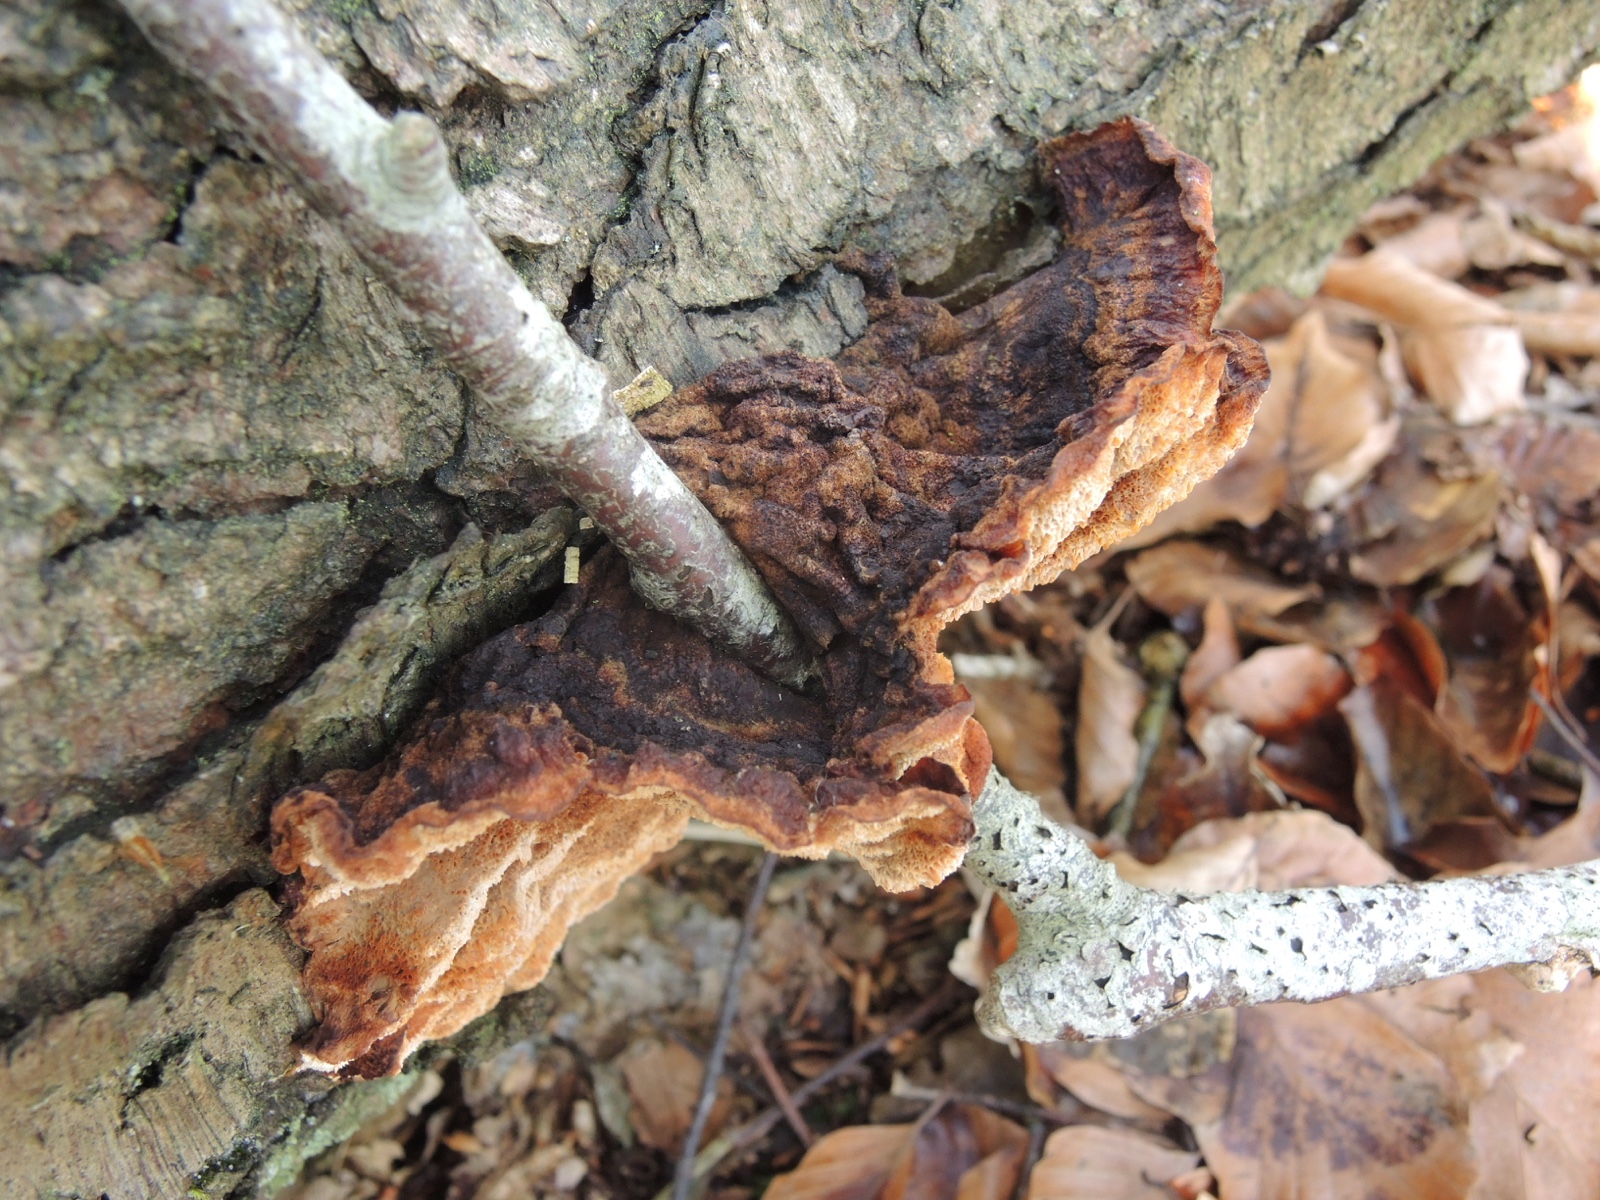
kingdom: Fungi
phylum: Basidiomycota
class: Agaricomycetes
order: Polyporales
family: Ischnodermataceae
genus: Ischnoderma
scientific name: Ischnoderma benzoinum
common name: gran-tjæreporesvamp
